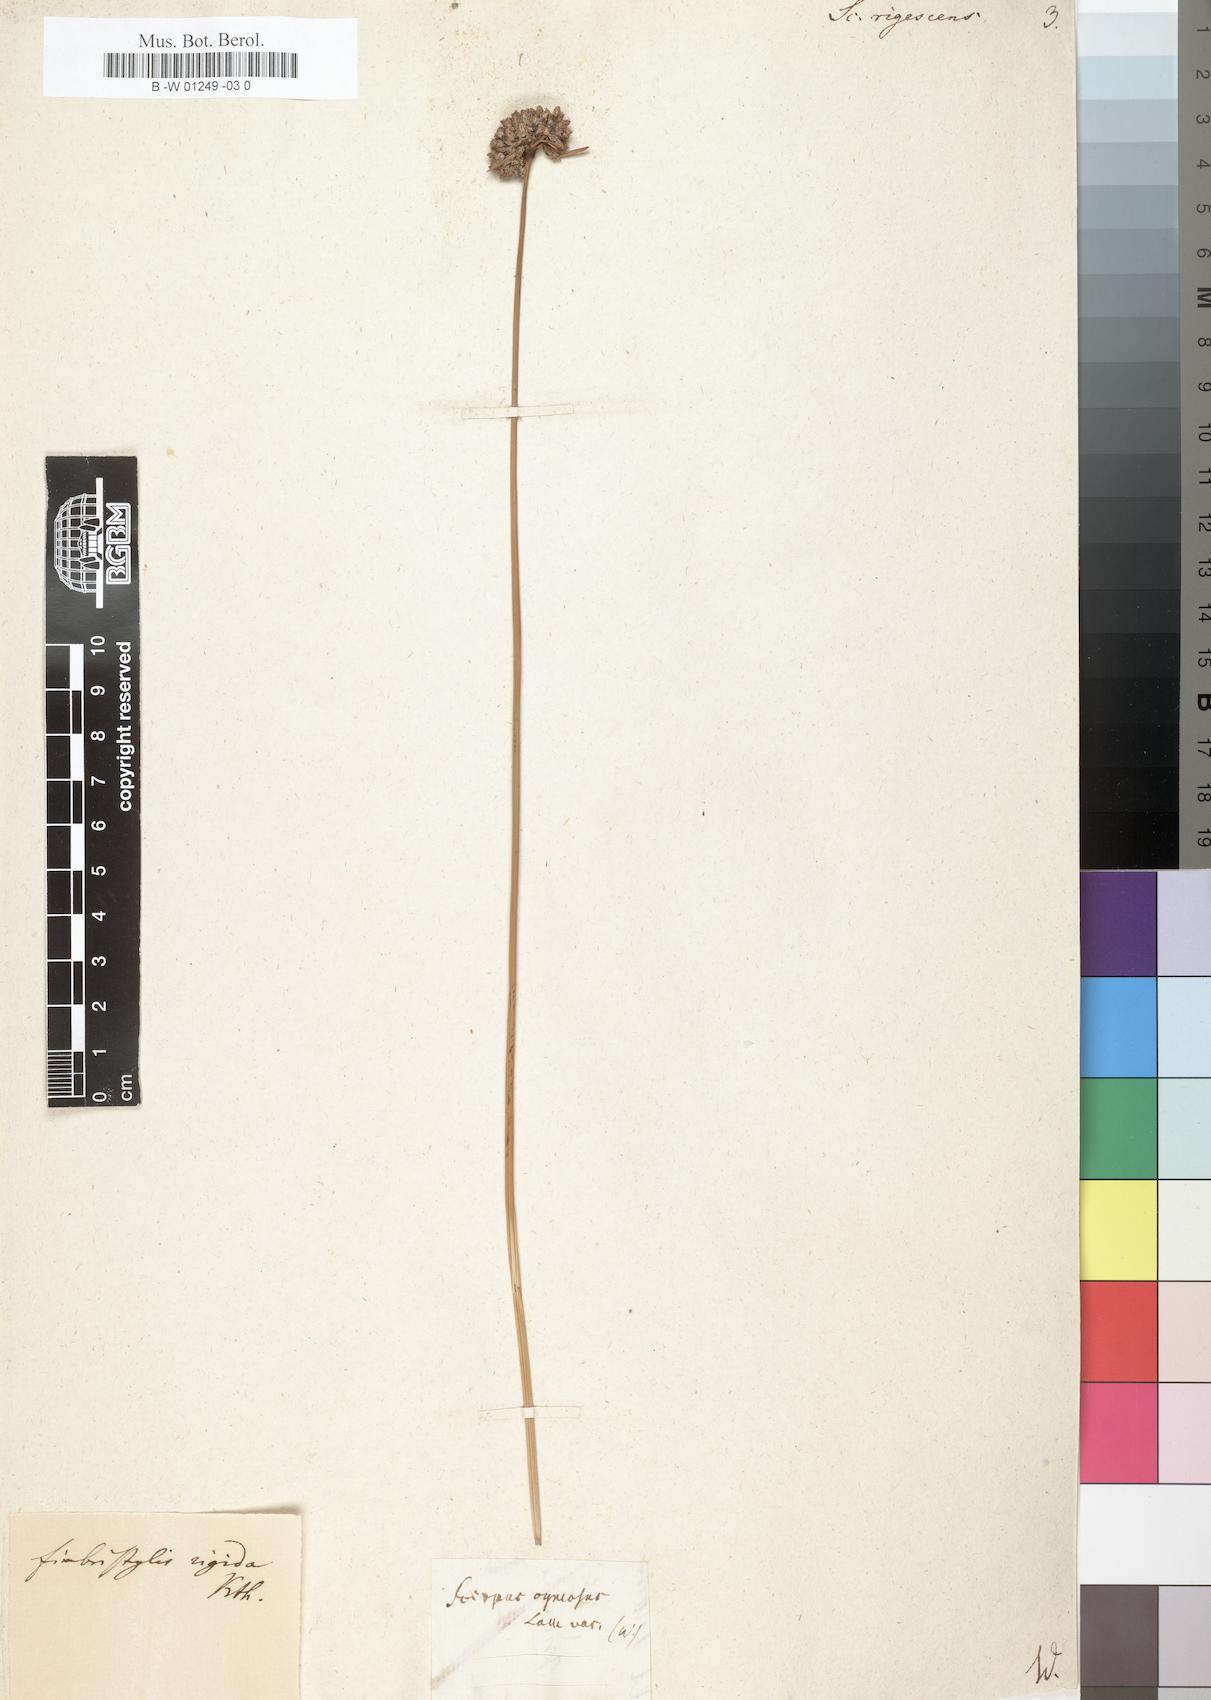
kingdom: Plantae
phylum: Tracheophyta
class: Liliopsida
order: Poales
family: Cyperaceae
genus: Fimbristylis
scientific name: Fimbristylis cymosa
